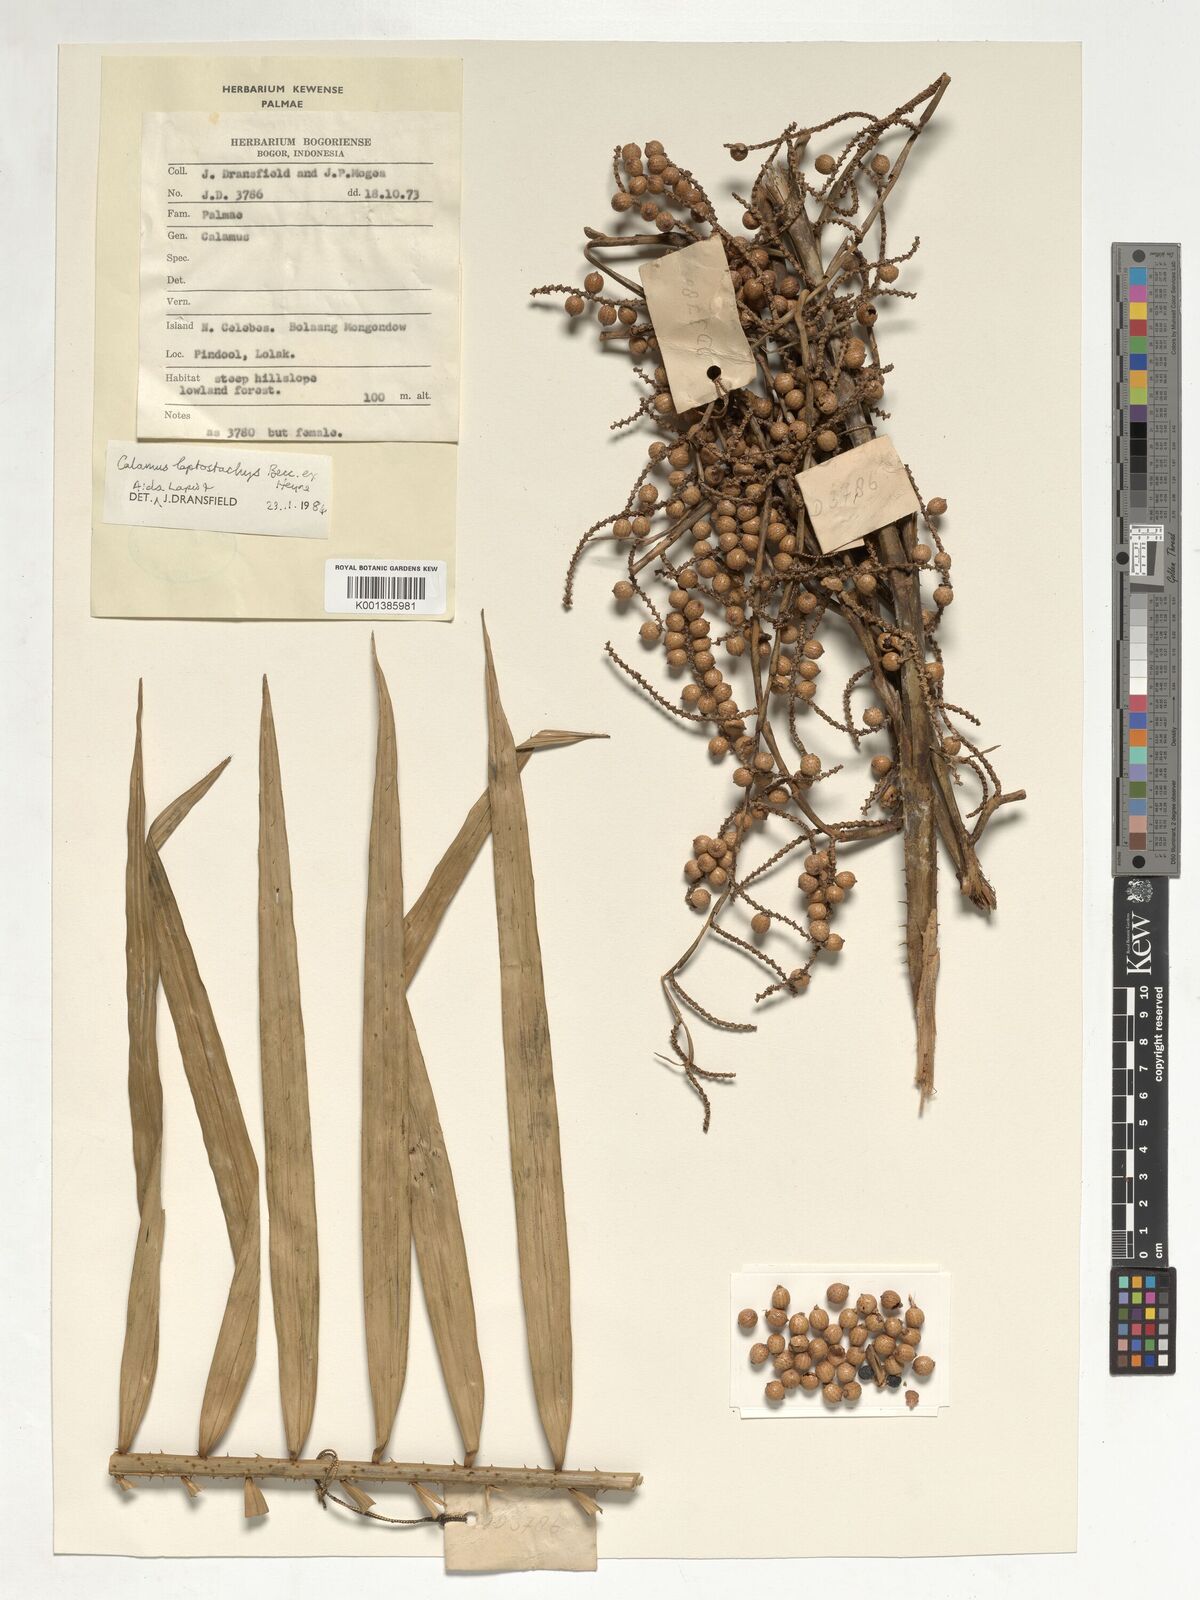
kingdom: Plantae
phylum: Tracheophyta
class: Liliopsida
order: Arecales
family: Arecaceae
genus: Calamus
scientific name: Calamus leptostachys
